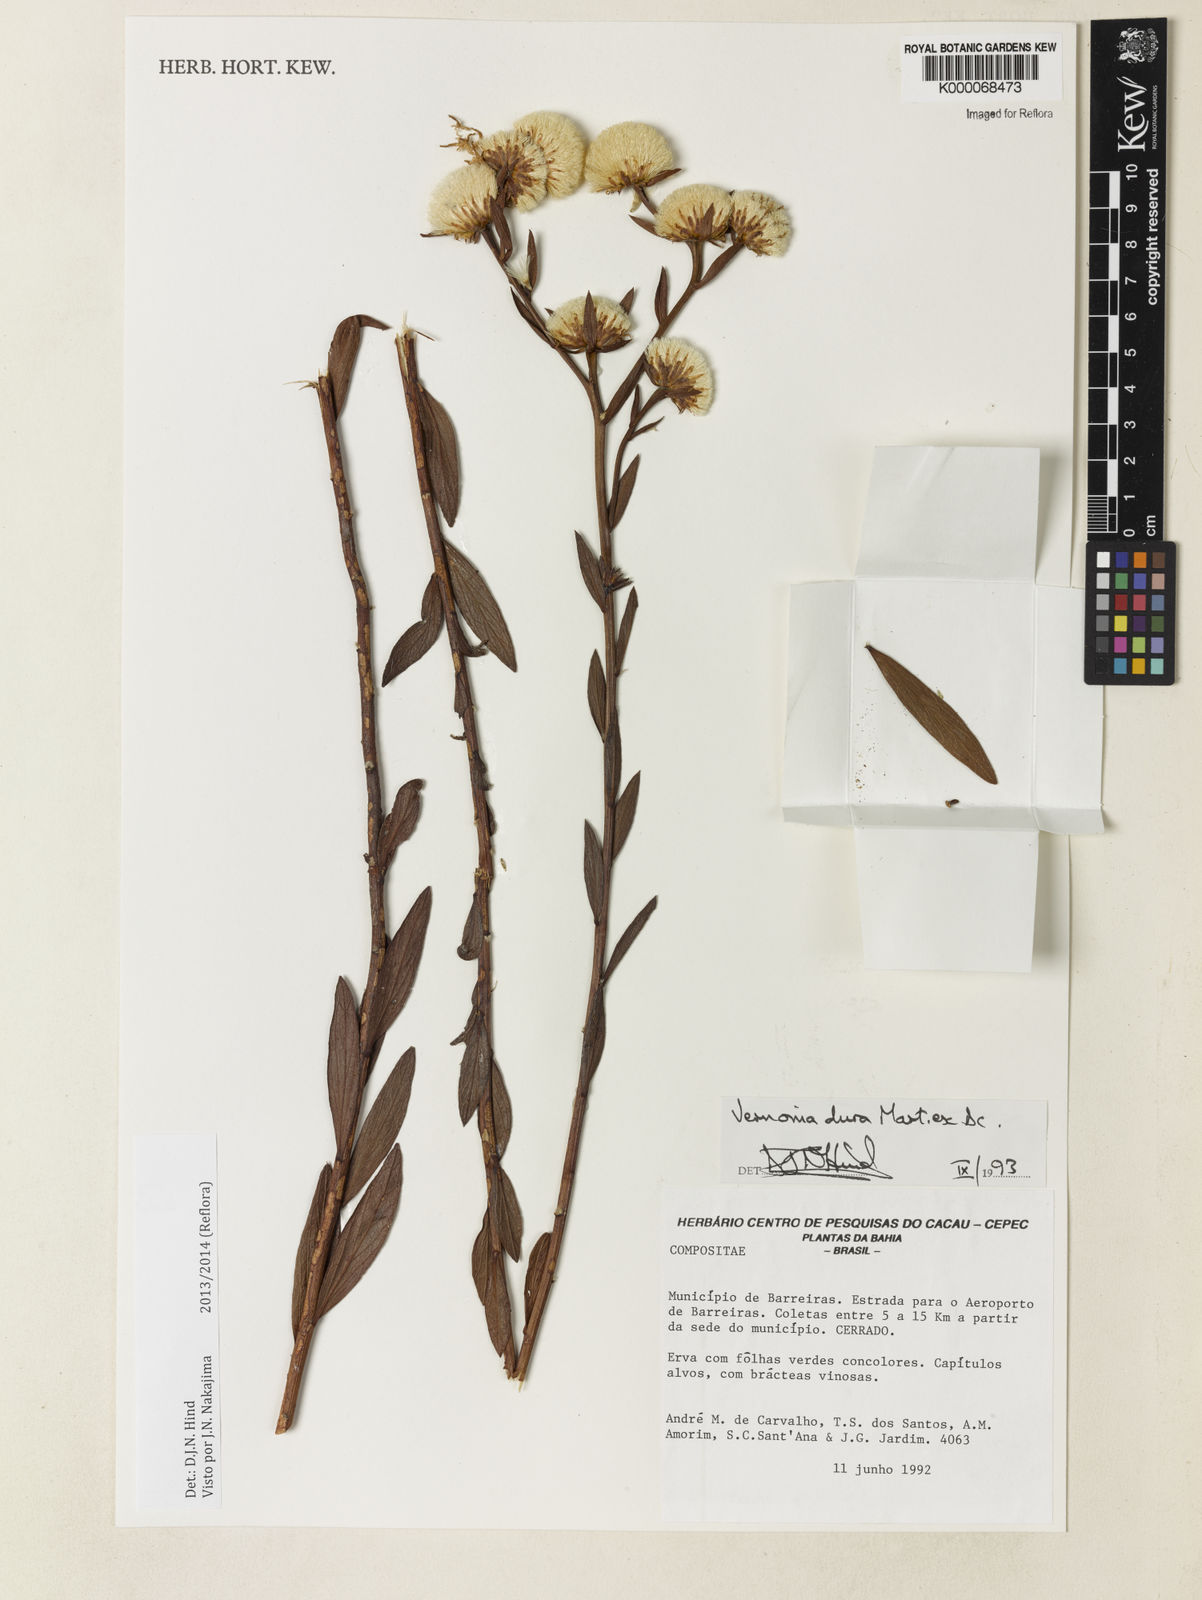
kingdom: Plantae
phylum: Tracheophyta
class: Magnoliopsida
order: Asterales
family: Asteraceae
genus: Lessingianthus
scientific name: Lessingianthus durus
